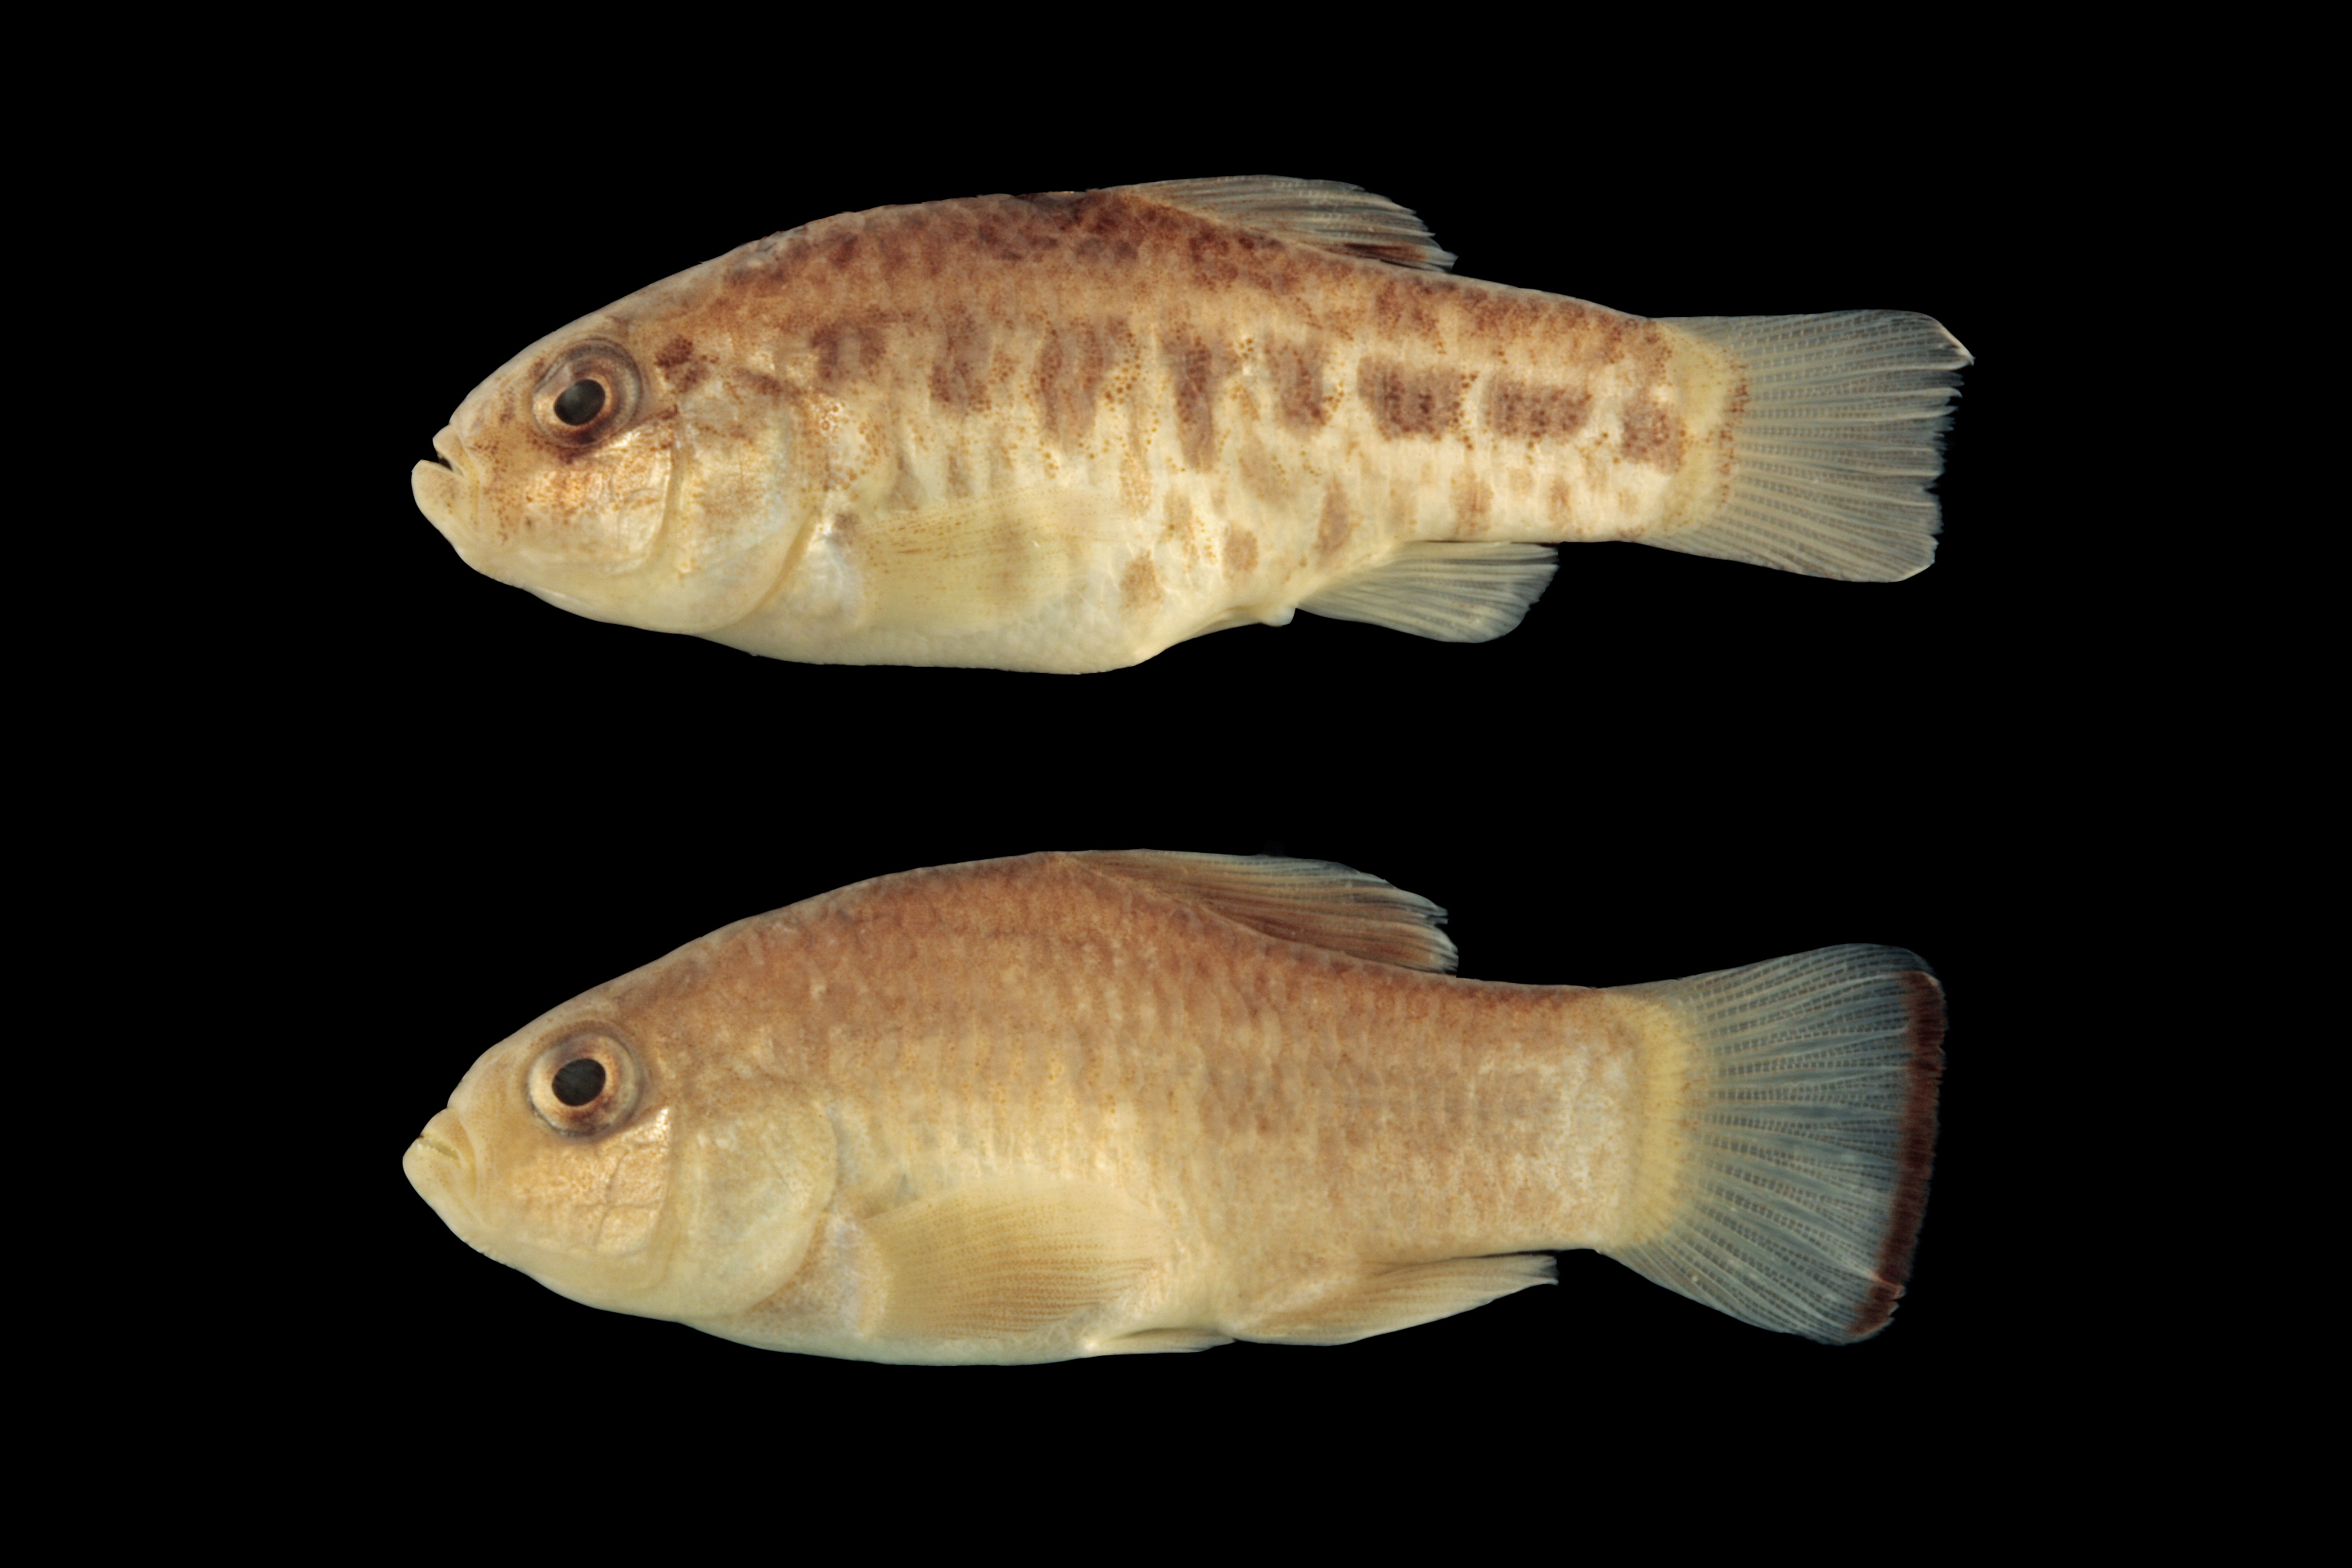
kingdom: Animalia
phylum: Chordata
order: Cyprinodontiformes
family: Cyprinodontidae
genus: Cyprinodon
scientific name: Cyprinodon bovinus
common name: Leon springs pupfish
